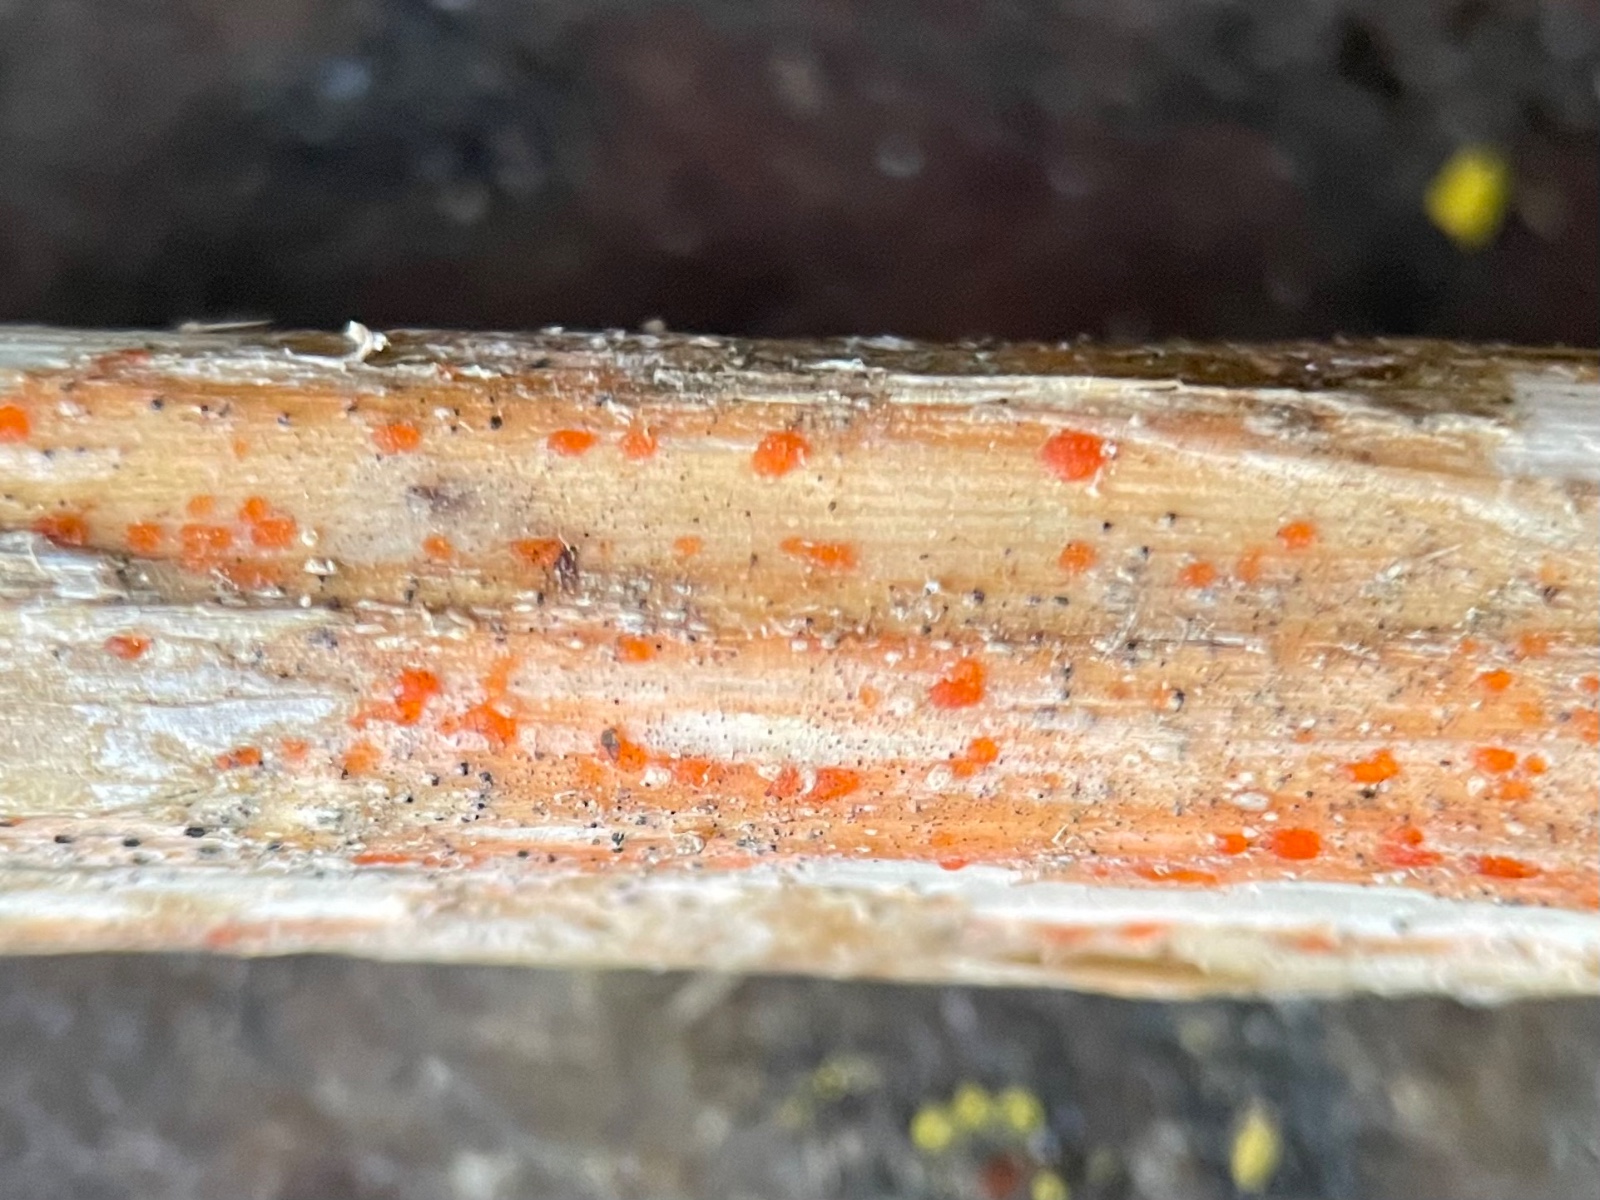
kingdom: Fungi
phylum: Ascomycota
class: Leotiomycetes
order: Helotiales
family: Calloriaceae
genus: Calloria
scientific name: Calloria urticae
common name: nælde-orangeskive
